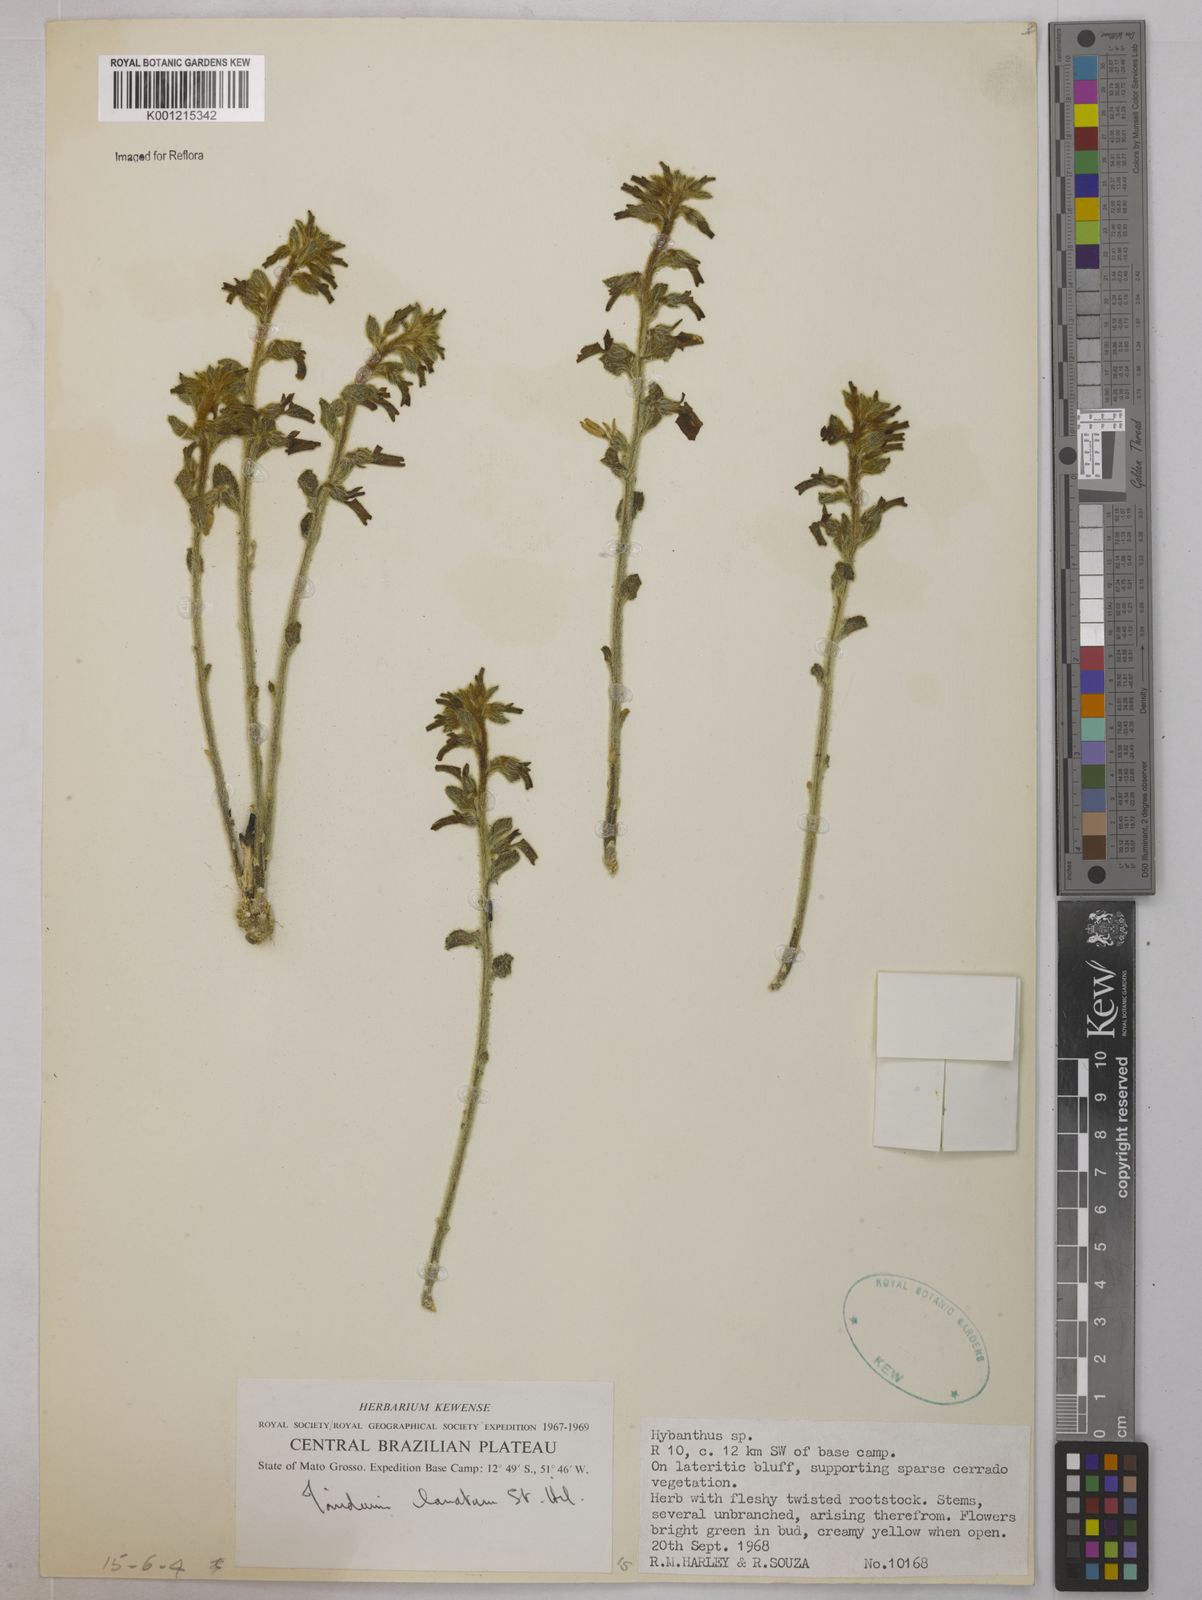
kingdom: Plantae
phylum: Tracheophyta
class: Magnoliopsida
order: Malpighiales
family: Violaceae
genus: Pombalia
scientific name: Pombalia lanata
